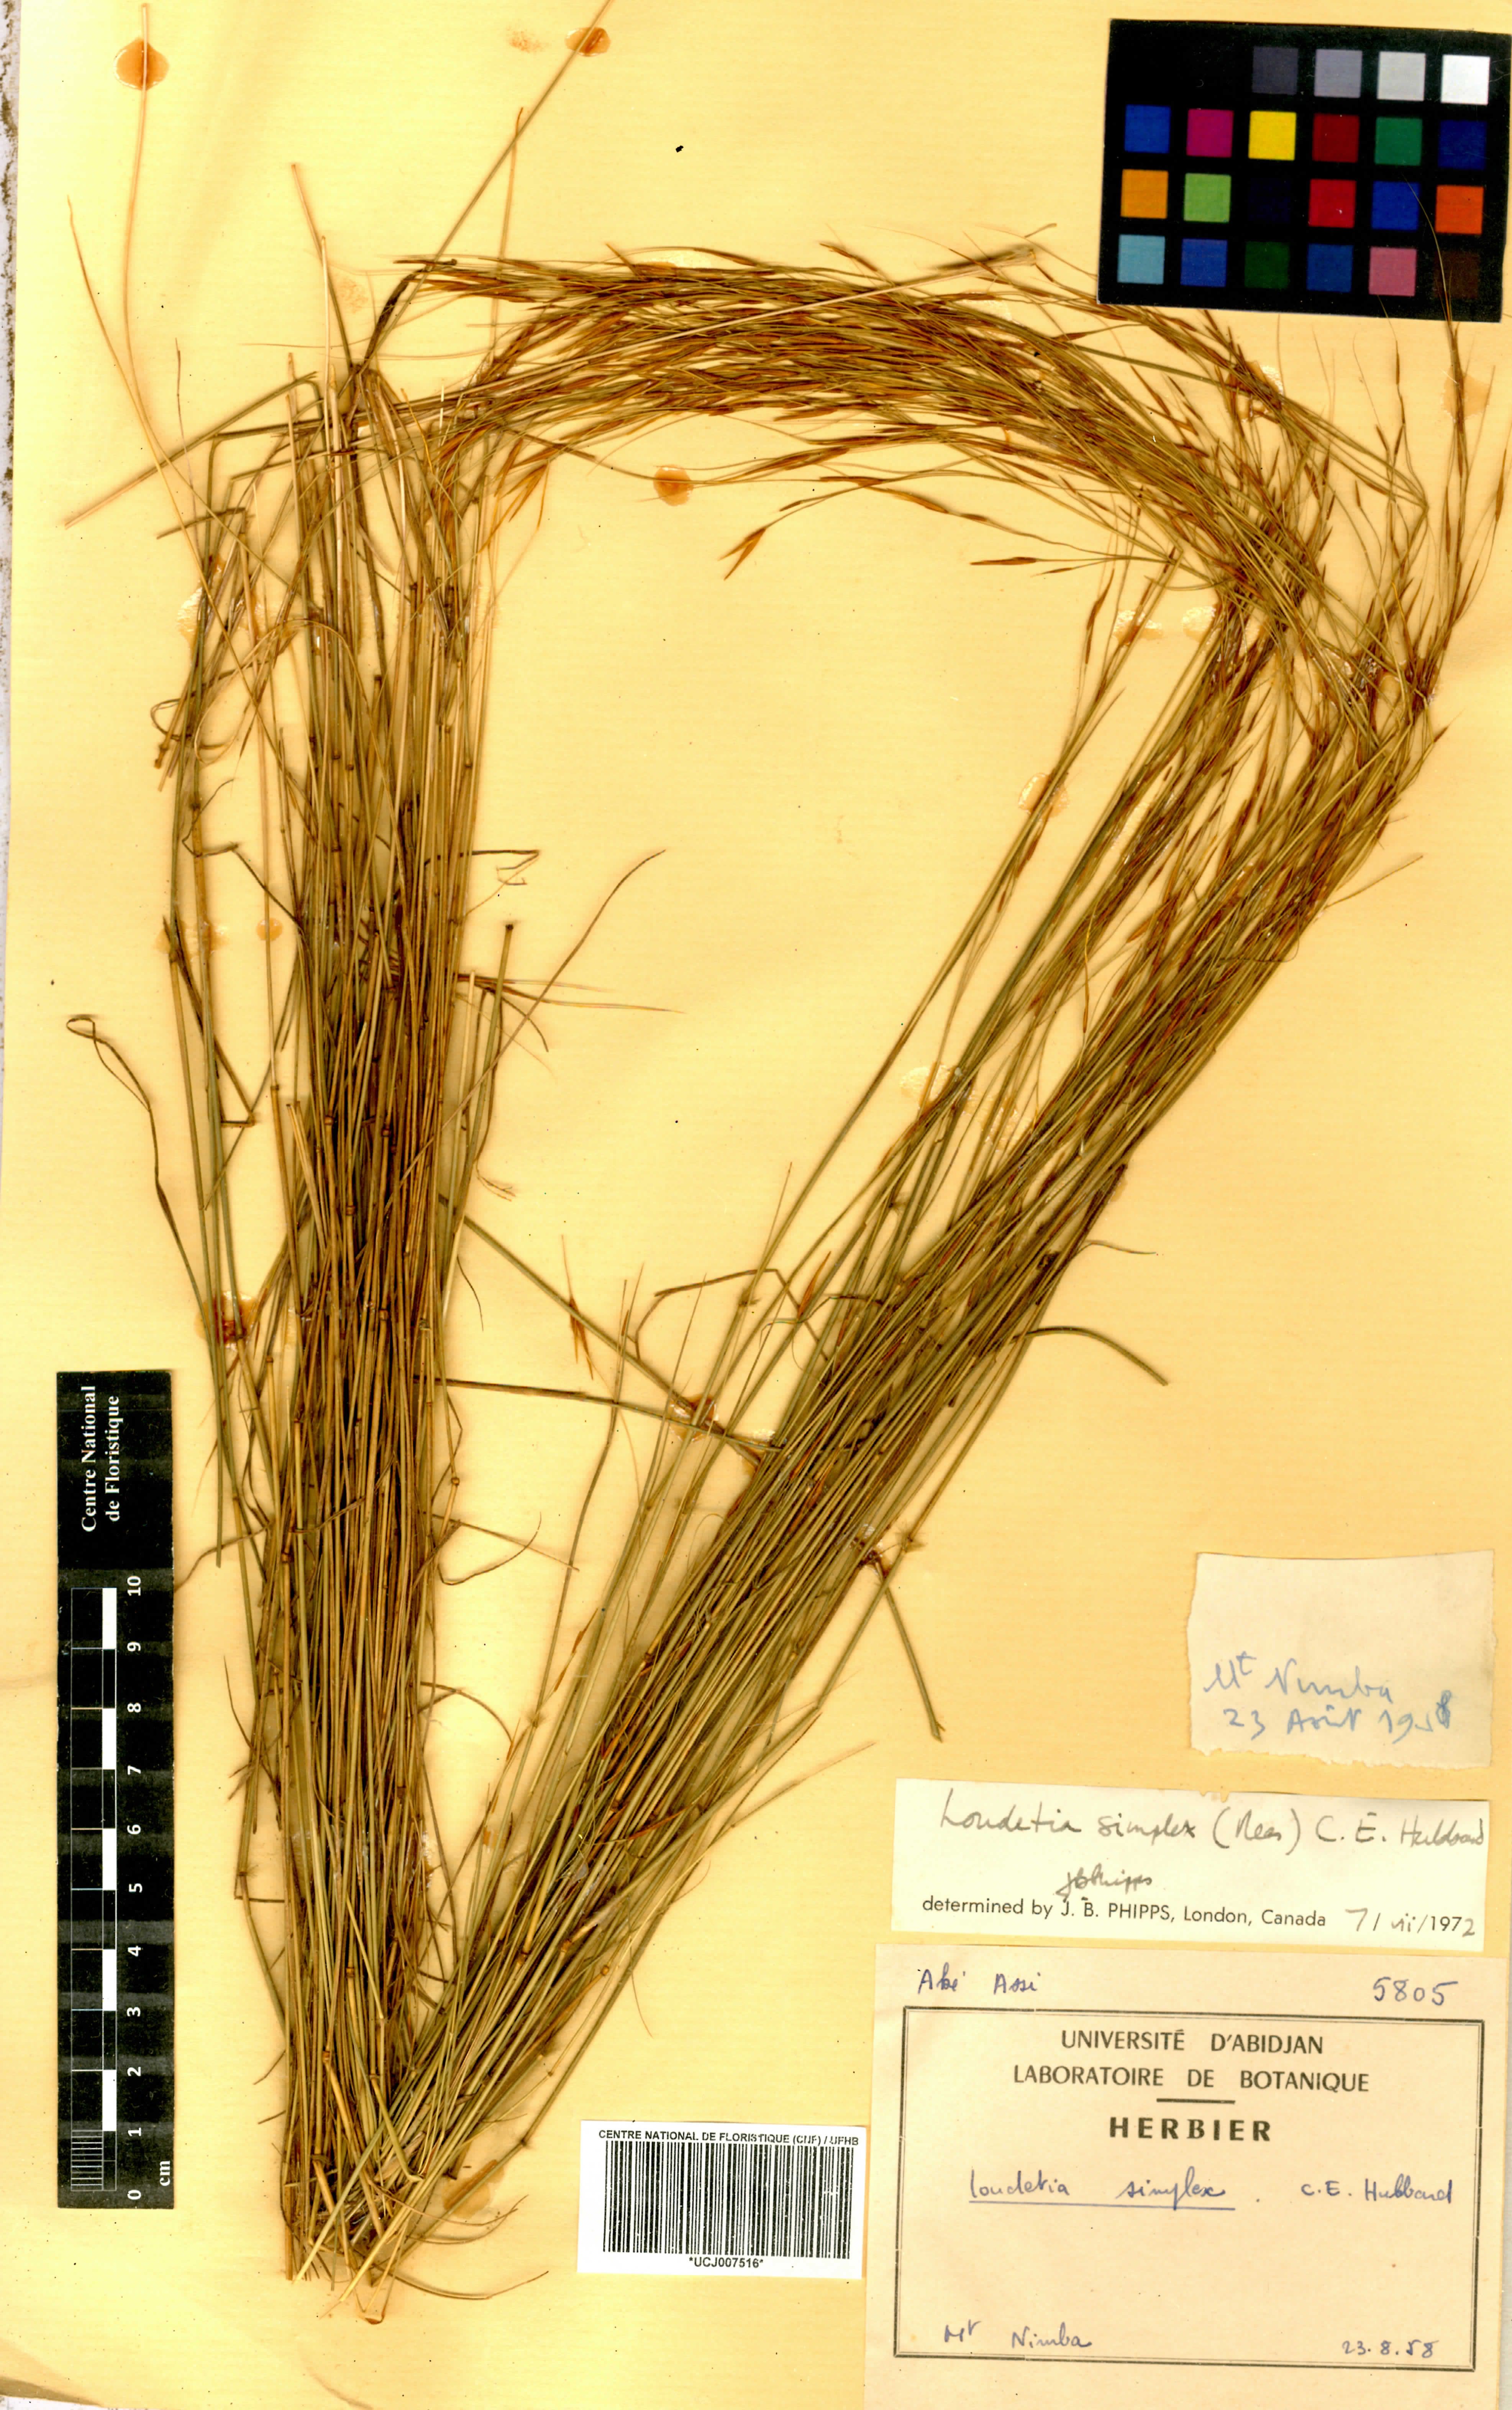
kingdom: Plantae
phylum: Tracheophyta
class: Liliopsida
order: Poales
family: Poaceae
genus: Loudetia
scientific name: Loudetia simplex
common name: Common russet grass
